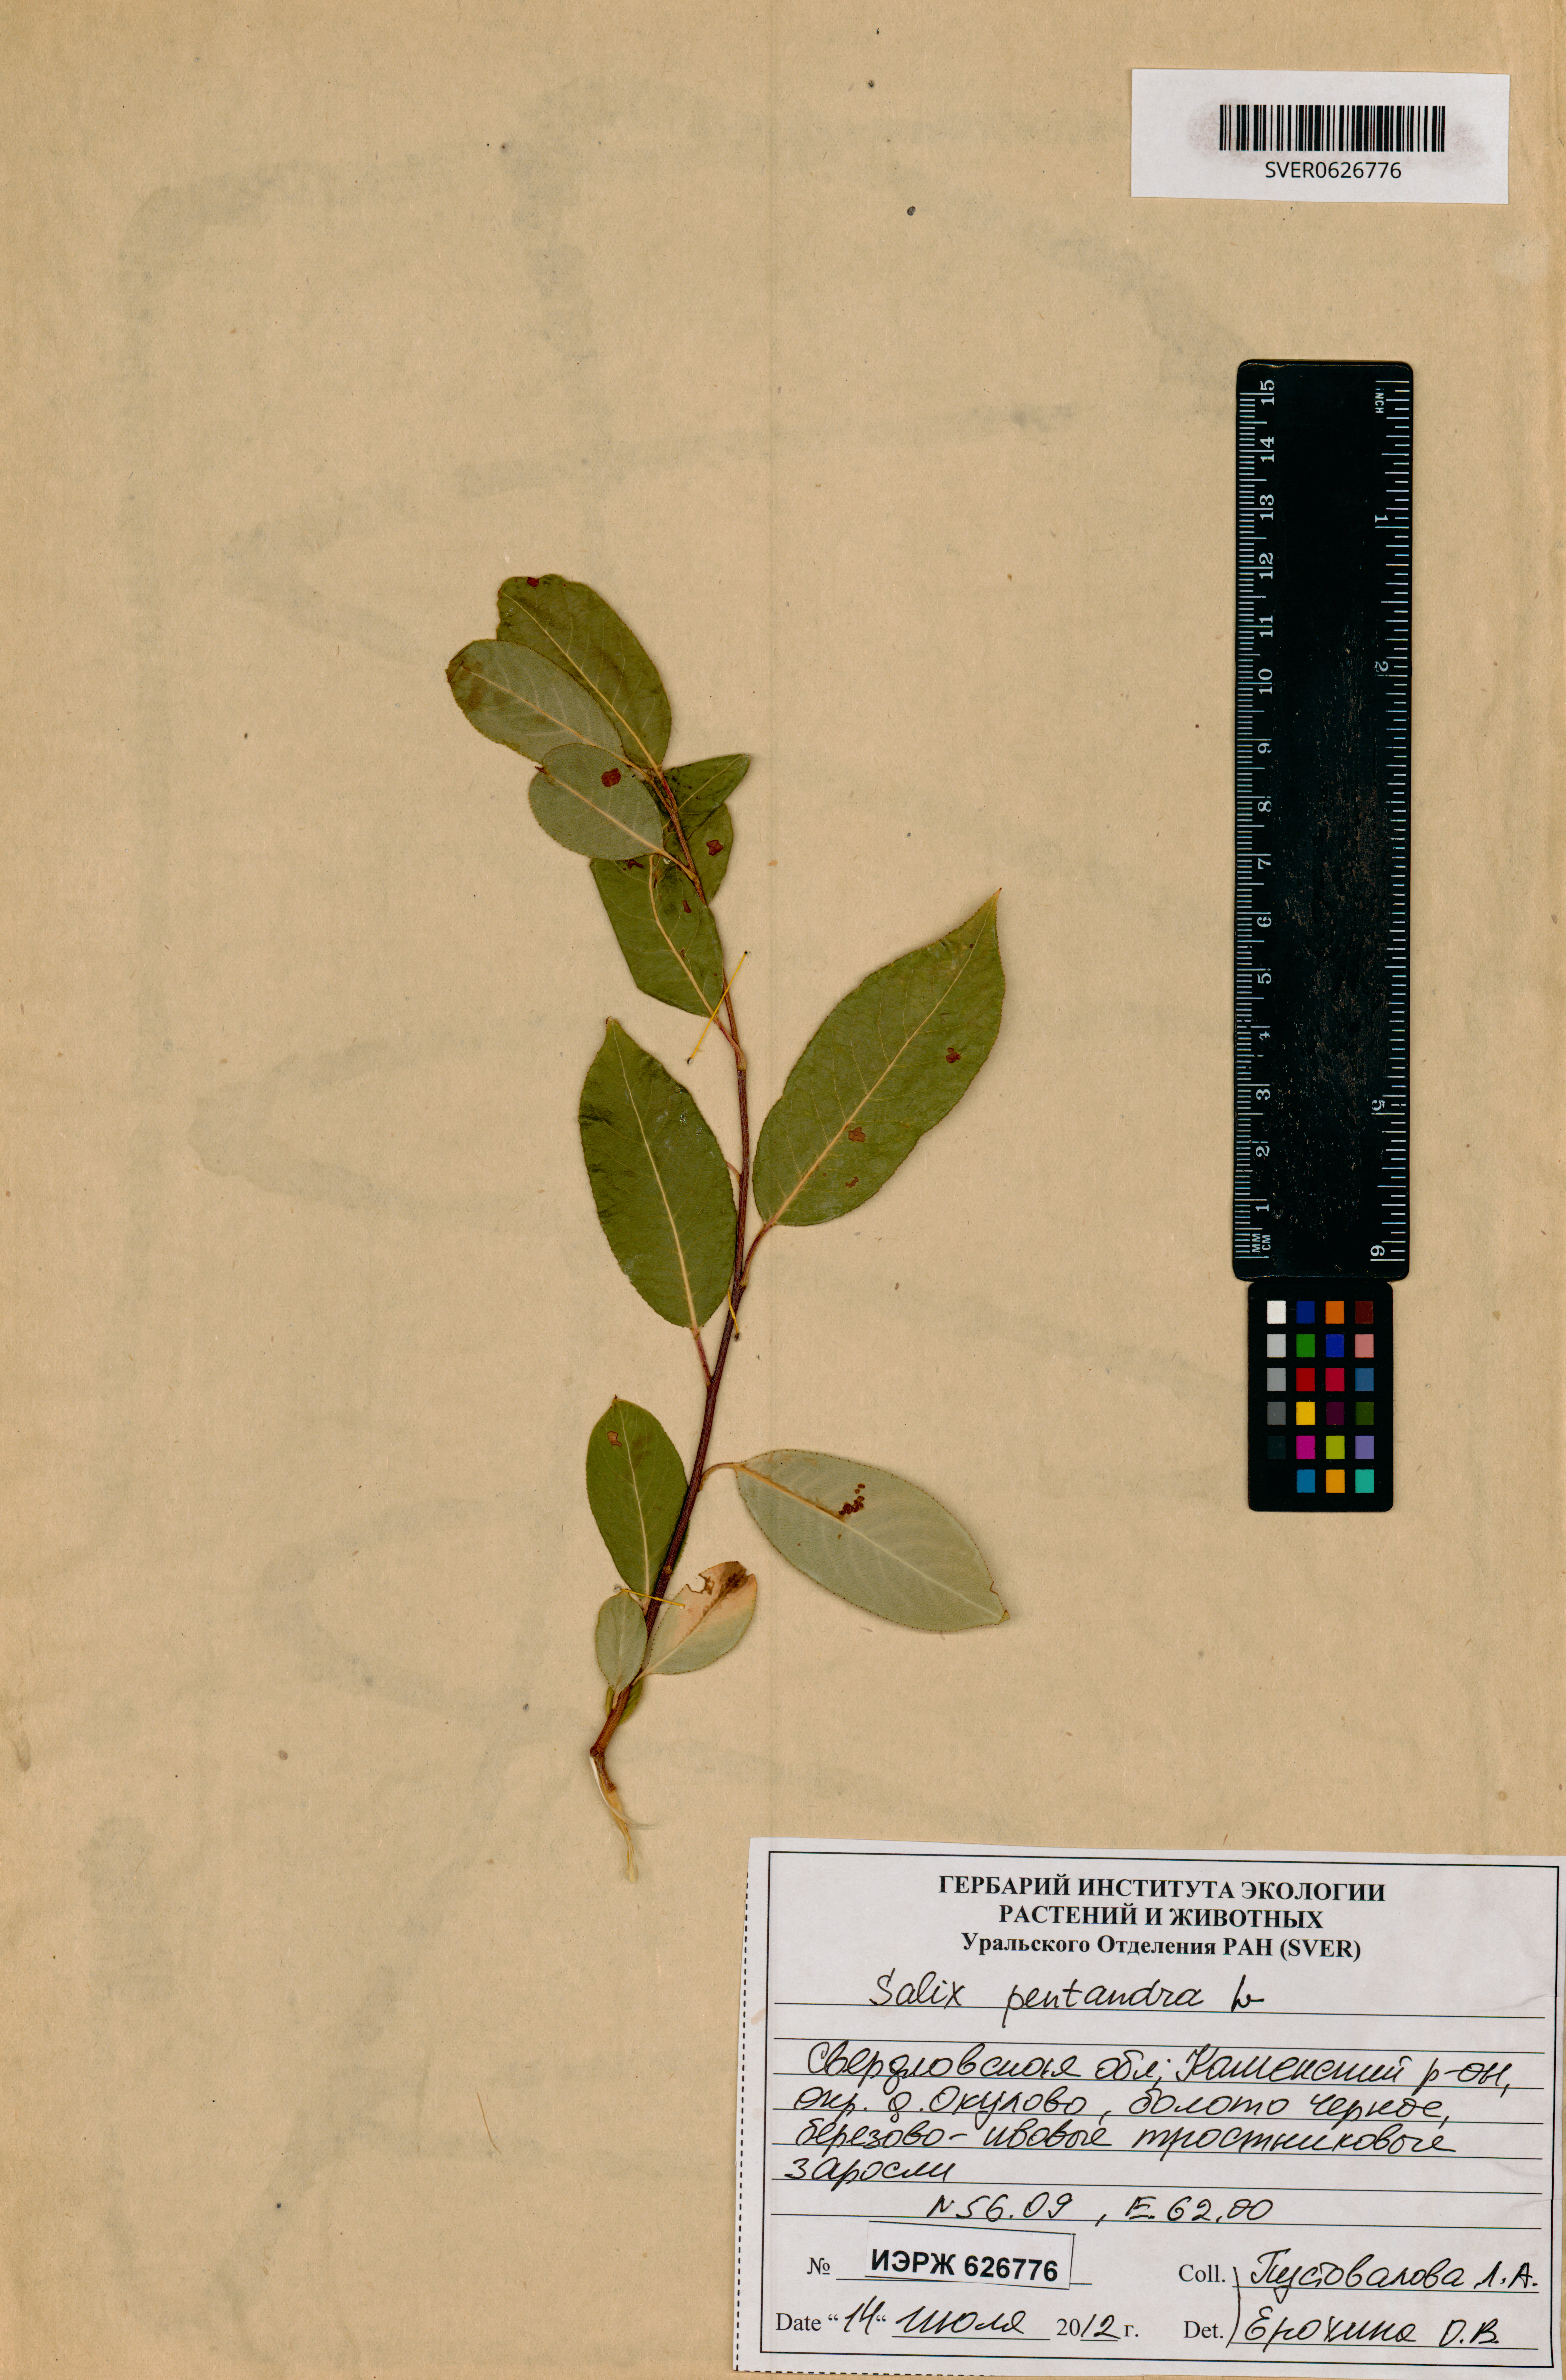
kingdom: Plantae
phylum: Tracheophyta
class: Magnoliopsida
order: Malpighiales
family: Salicaceae
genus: Salix
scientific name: Salix pentandra
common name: Bay willow
